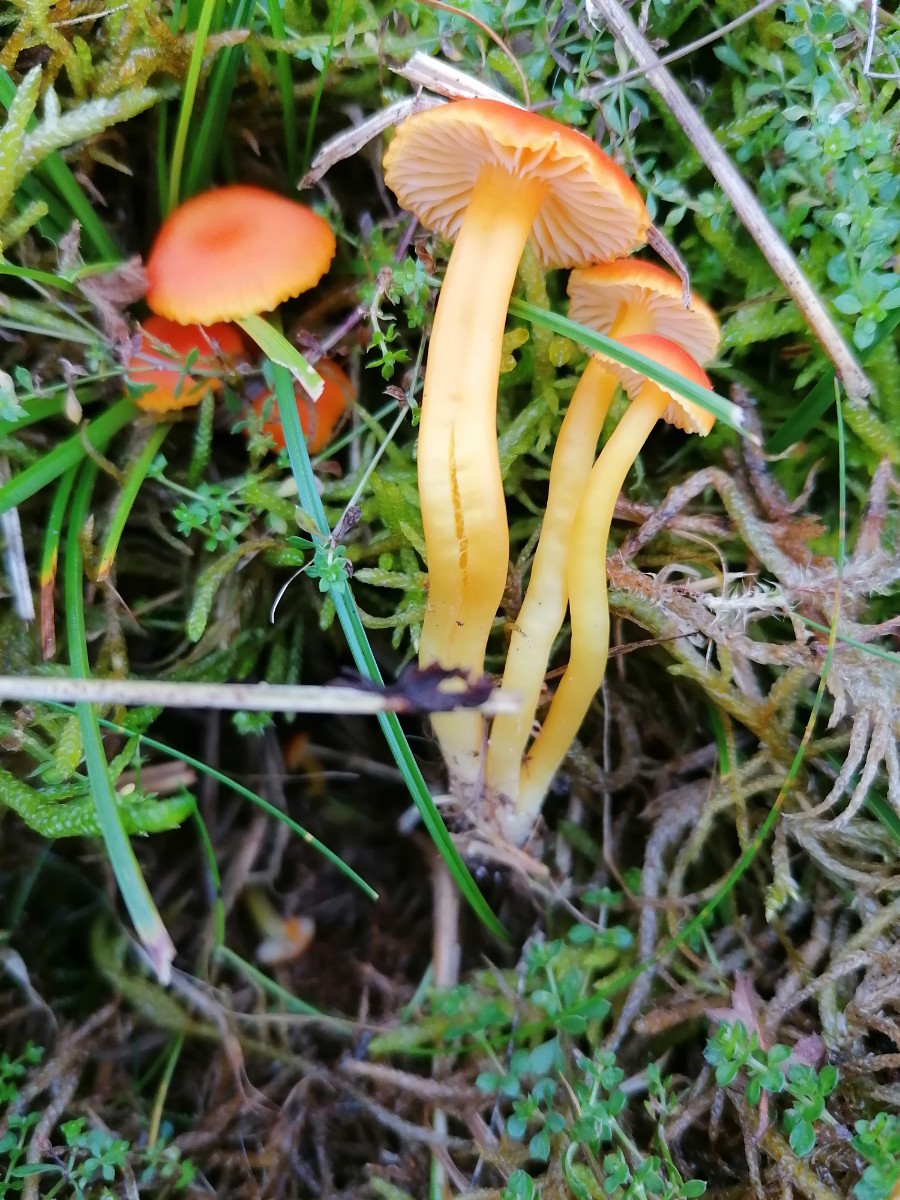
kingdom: Fungi
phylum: Basidiomycota
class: Agaricomycetes
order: Agaricales
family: Hygrophoraceae
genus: Hygrocybe
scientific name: Hygrocybe reidii
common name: honning-vokshat
